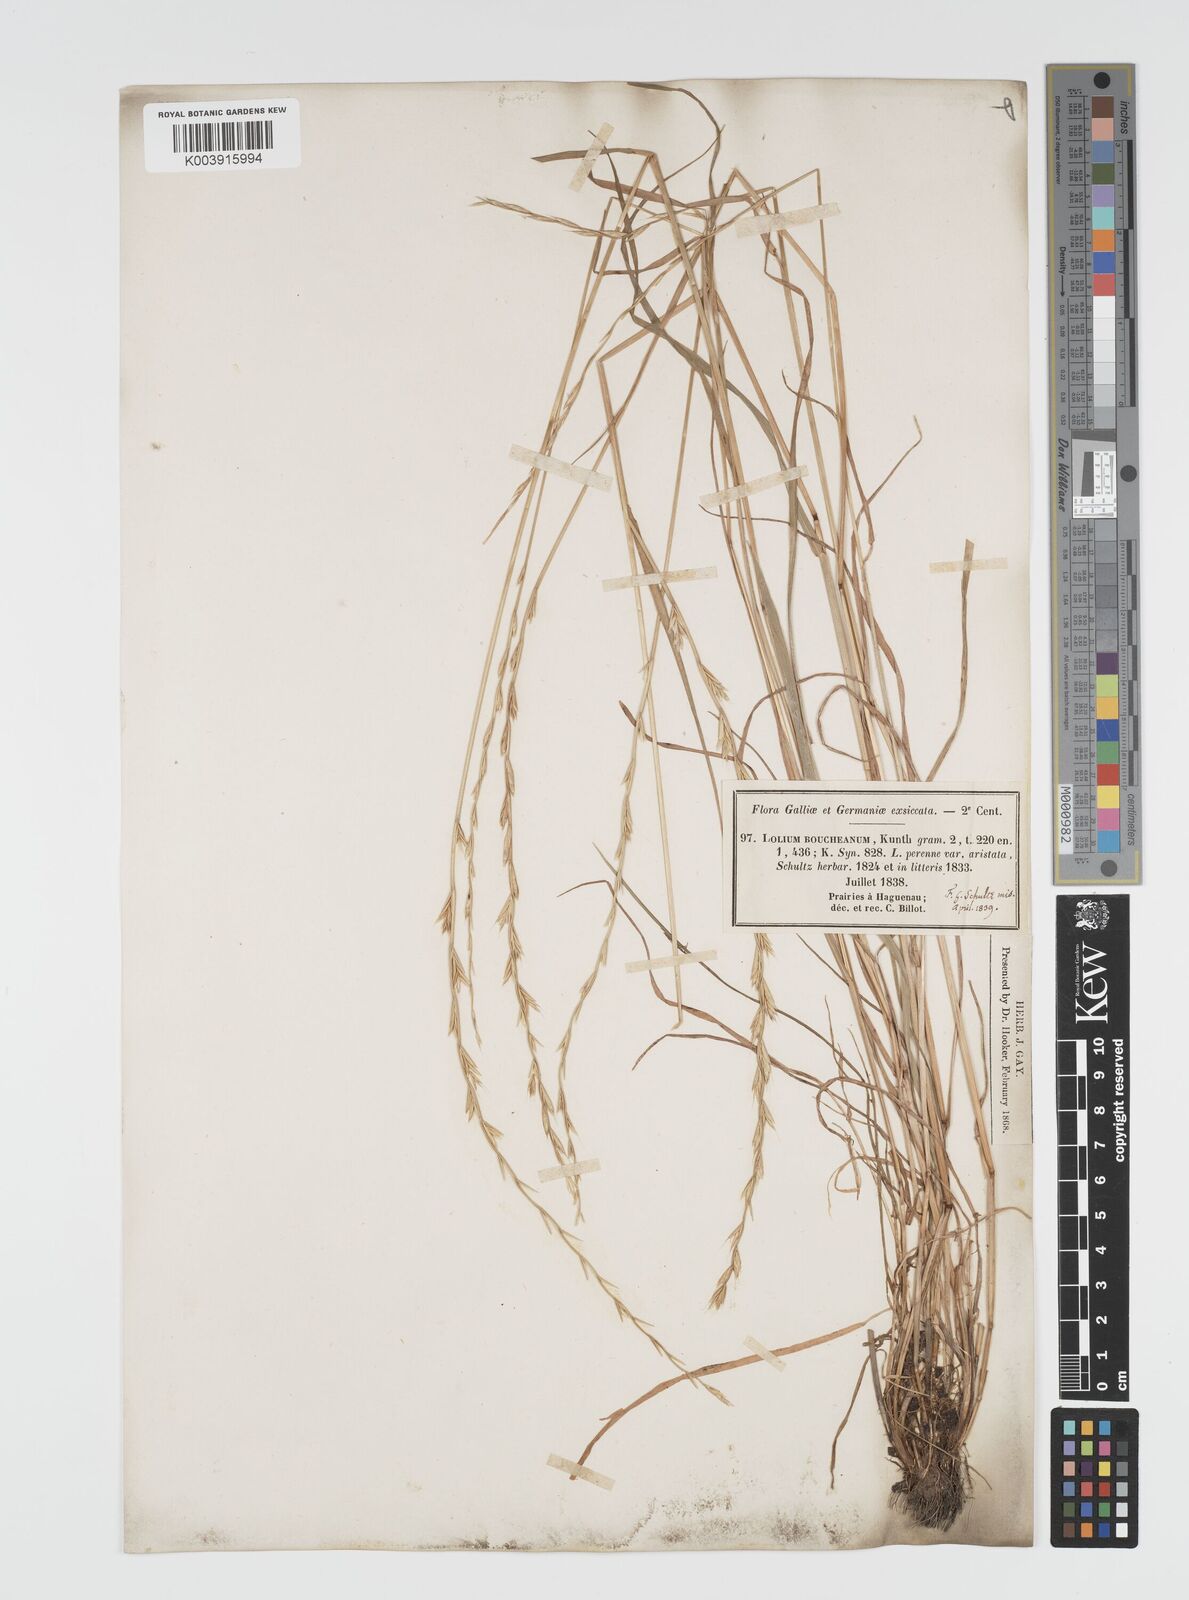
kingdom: Plantae
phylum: Tracheophyta
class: Liliopsida
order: Poales
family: Poaceae
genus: Lolium
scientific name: Lolium multiflorum
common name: Annual ryegrass
